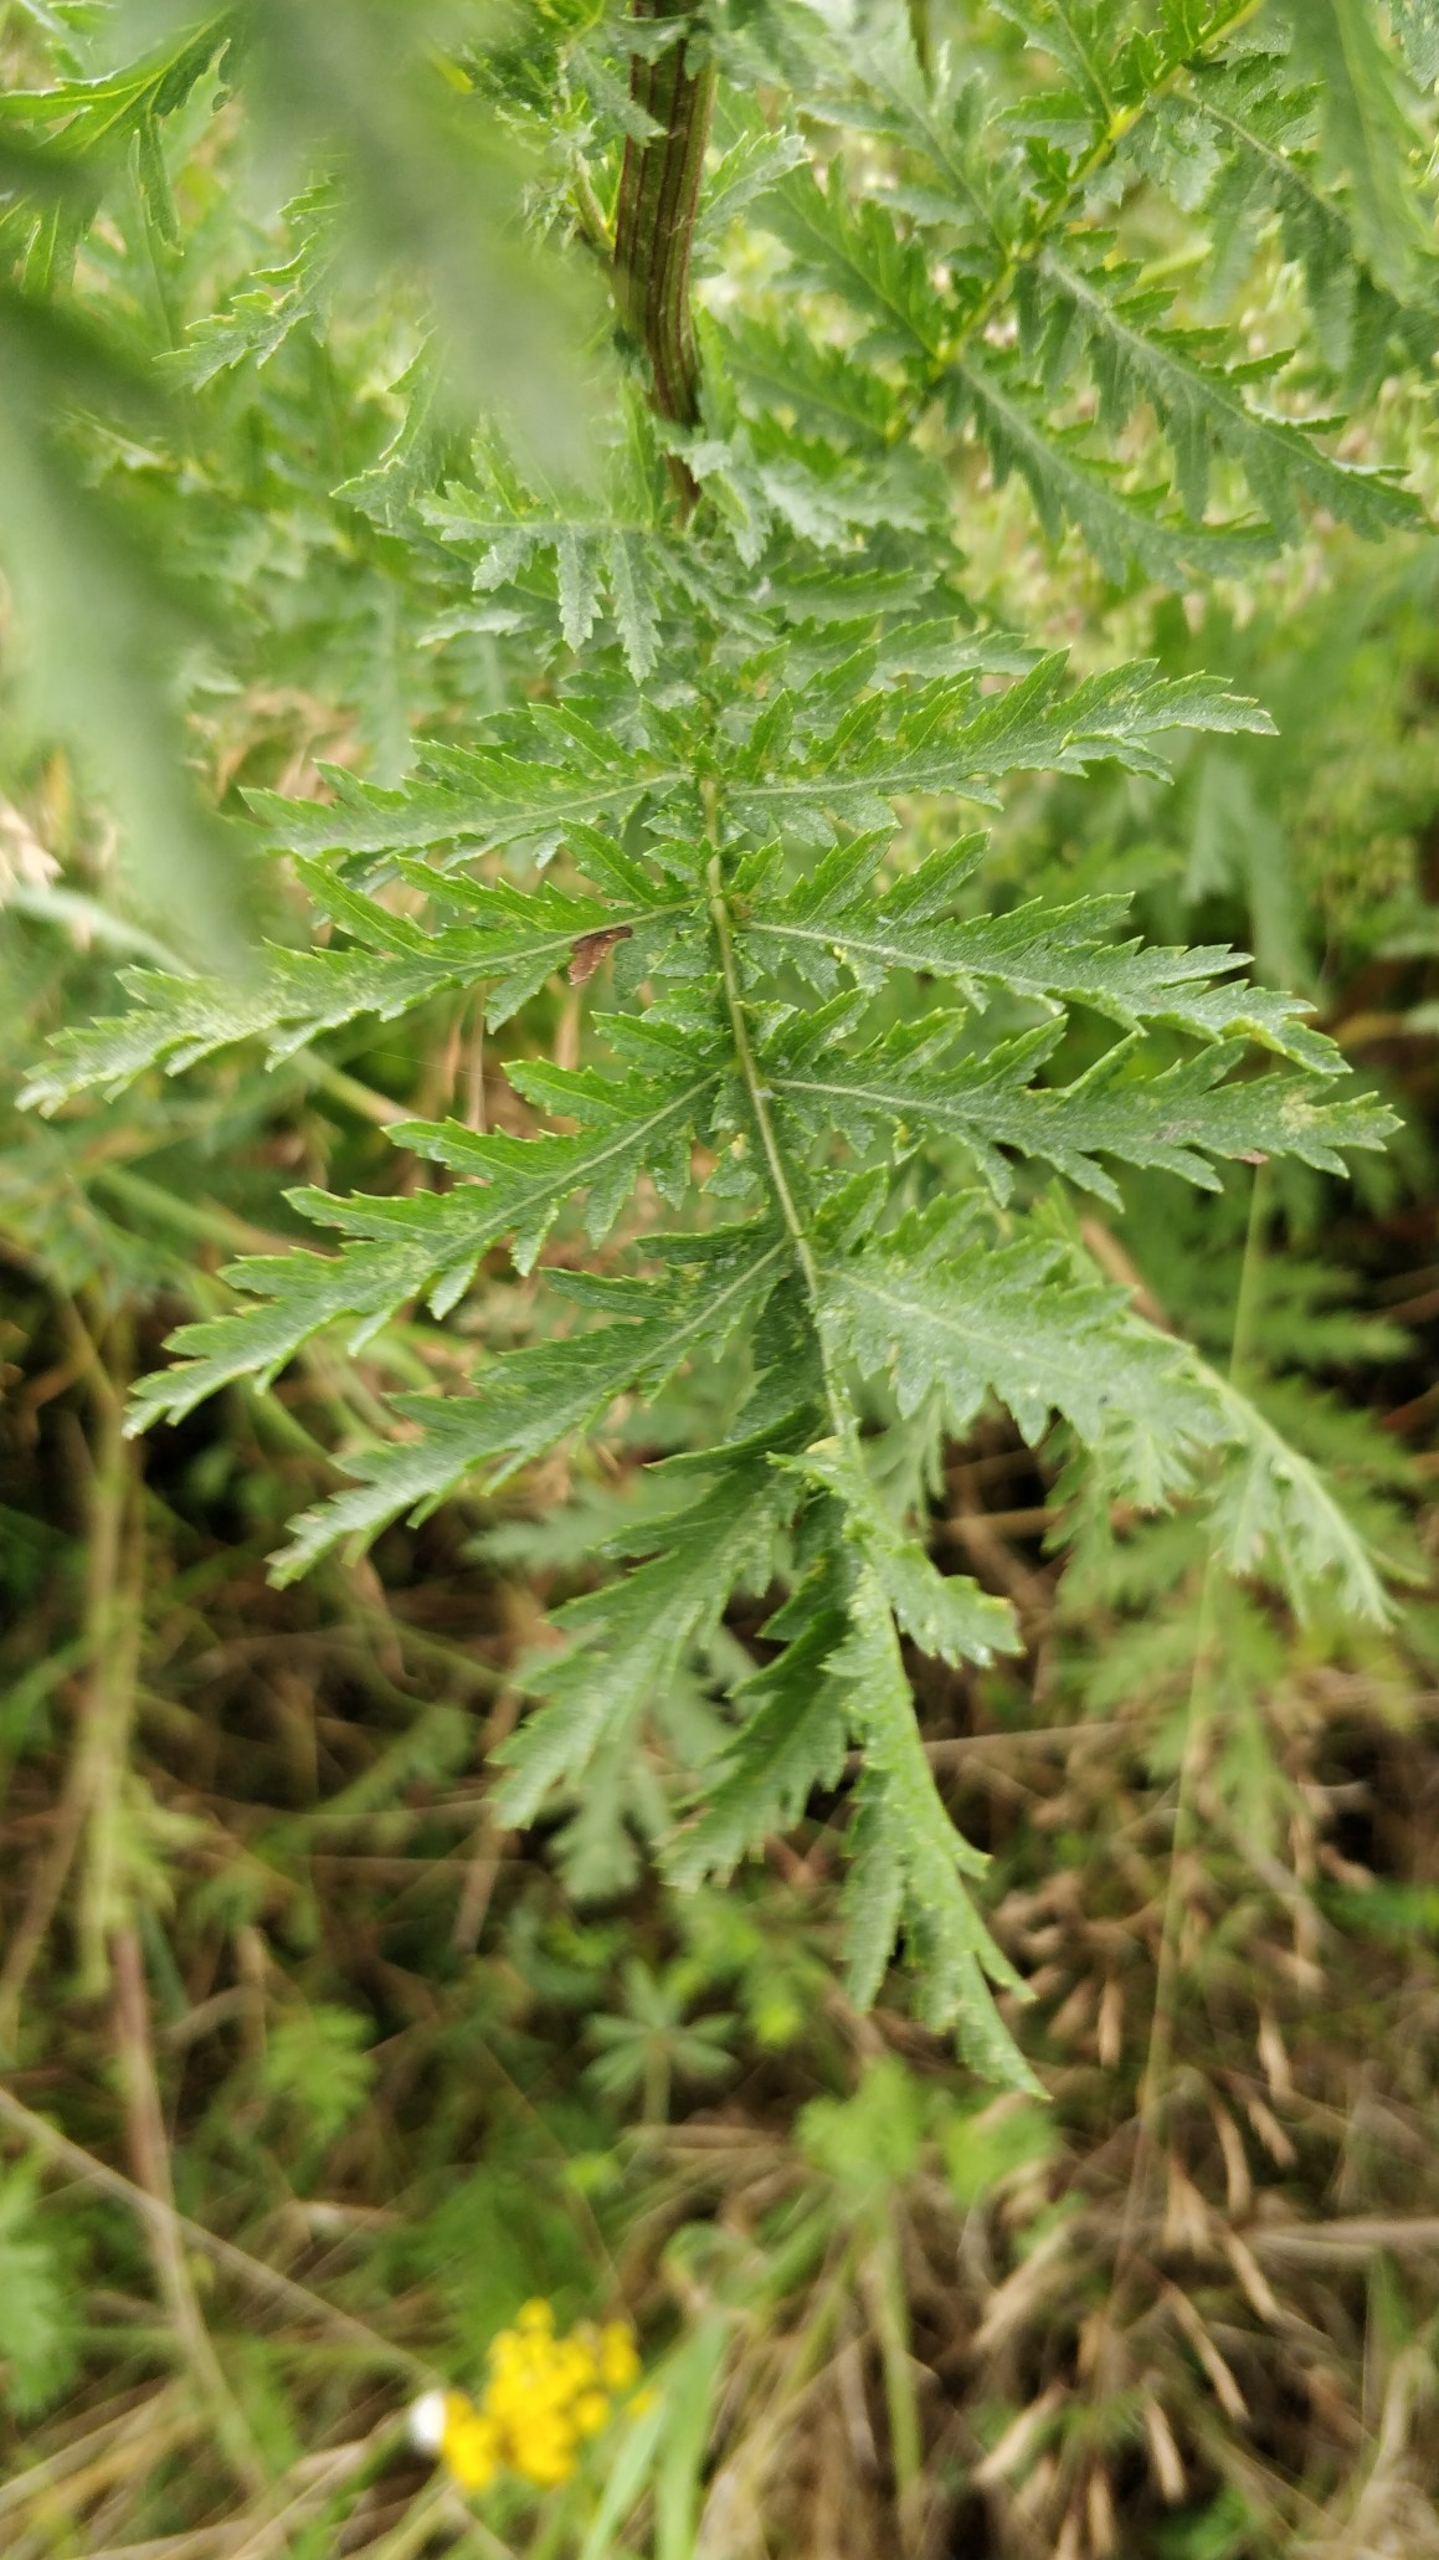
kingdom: Plantae
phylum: Tracheophyta
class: Magnoliopsida
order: Asterales
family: Asteraceae
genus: Tanacetum
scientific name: Tanacetum vulgare
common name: Rejnfan
